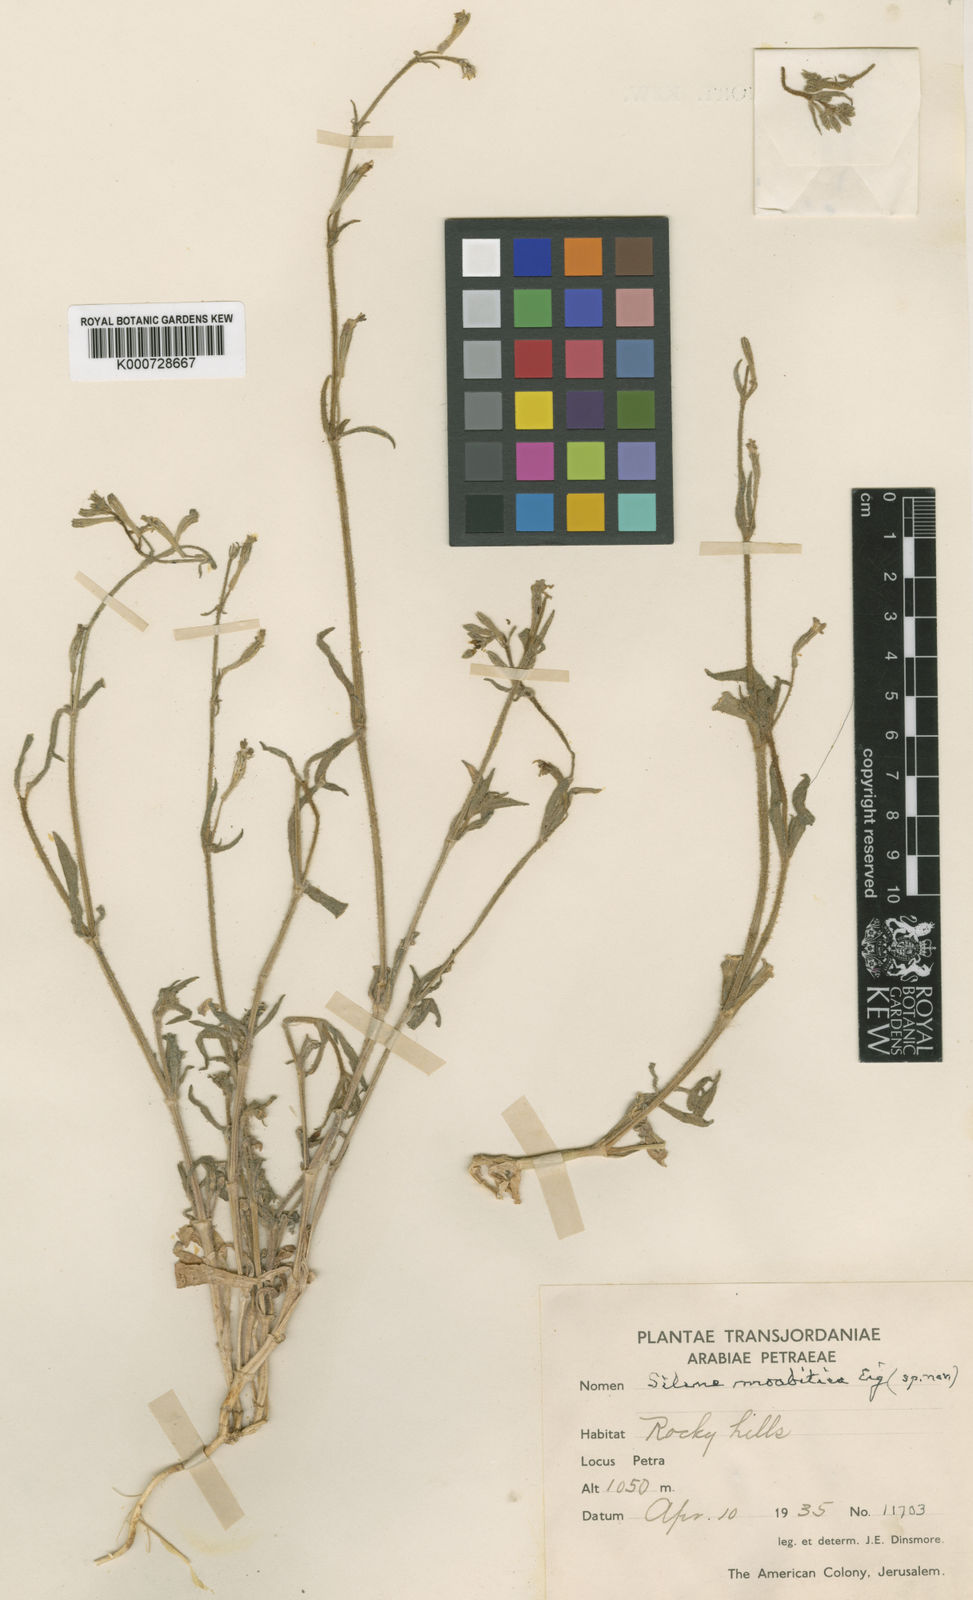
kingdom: Plantae
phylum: Tracheophyta
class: Magnoliopsida
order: Caryophyllales
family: Caryophyllaceae
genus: Silene
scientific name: Silene moabitica
